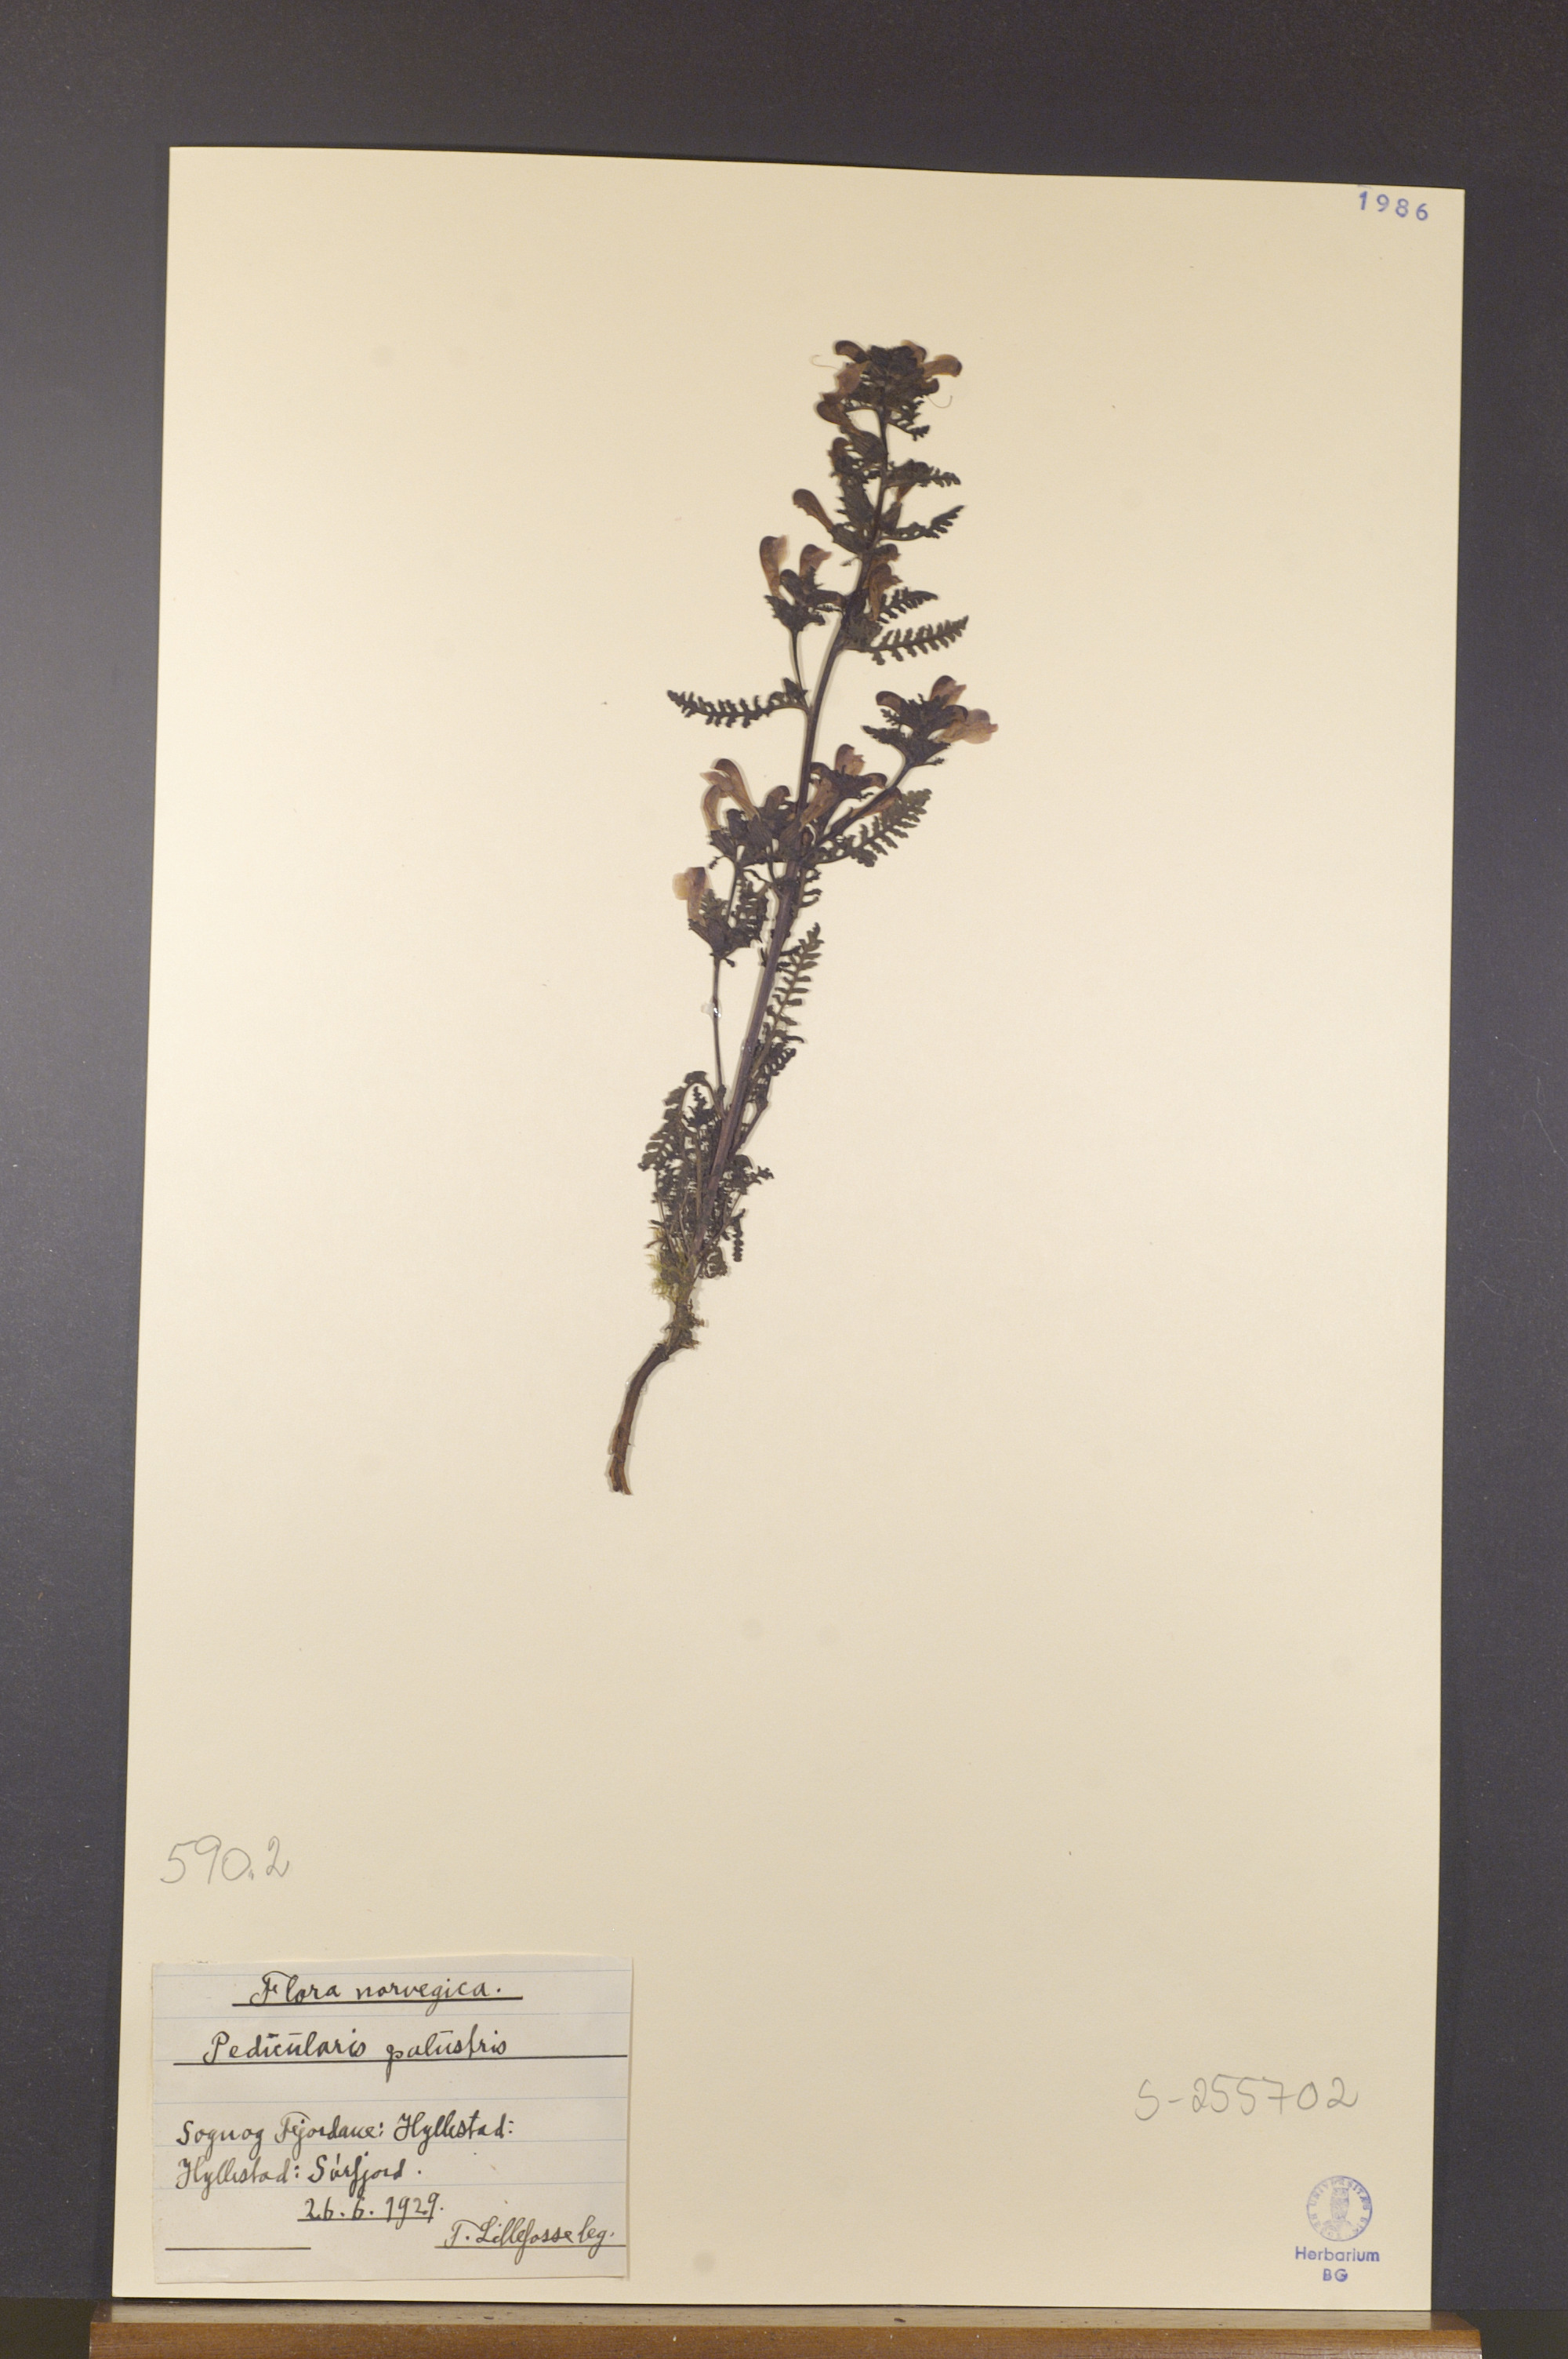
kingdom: Plantae
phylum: Tracheophyta
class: Magnoliopsida
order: Lamiales
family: Orobanchaceae
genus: Pedicularis
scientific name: Pedicularis palustris
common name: Marsh lousewort
